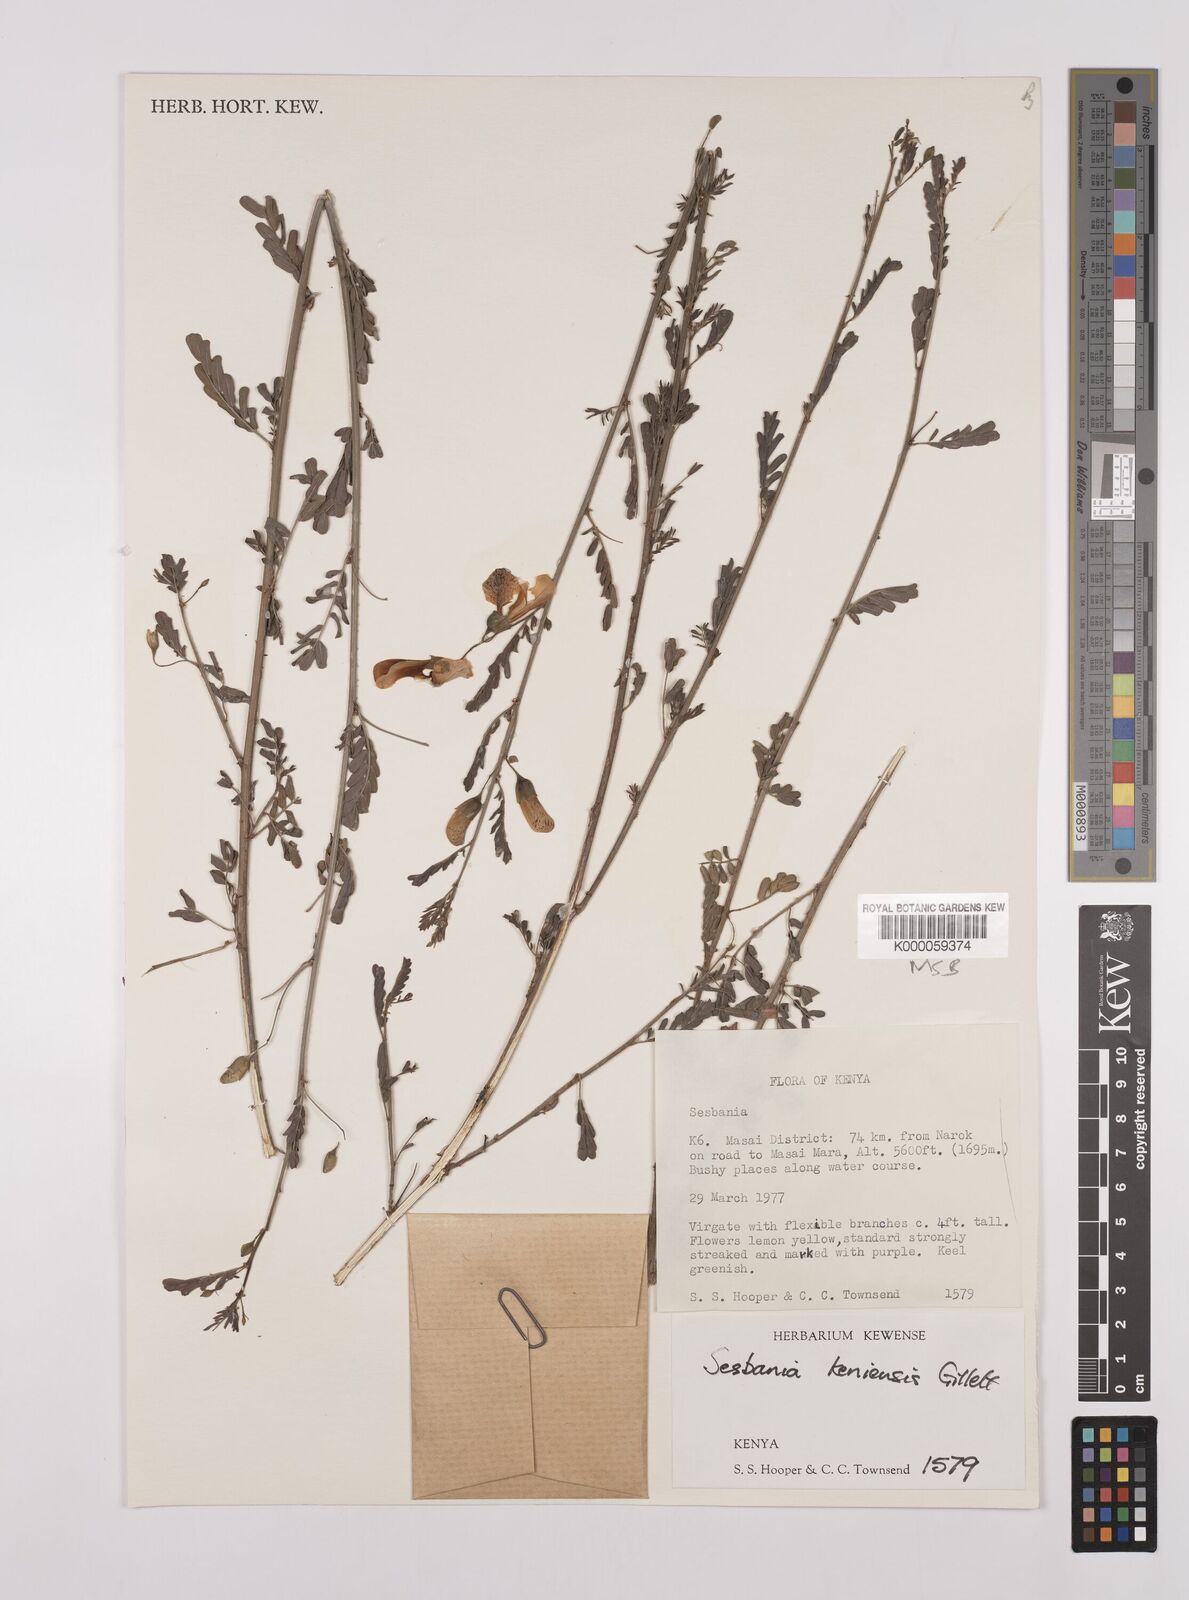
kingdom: Plantae
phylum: Tracheophyta
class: Magnoliopsida
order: Fabales
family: Fabaceae
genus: Sesbania
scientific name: Sesbania keniensis
